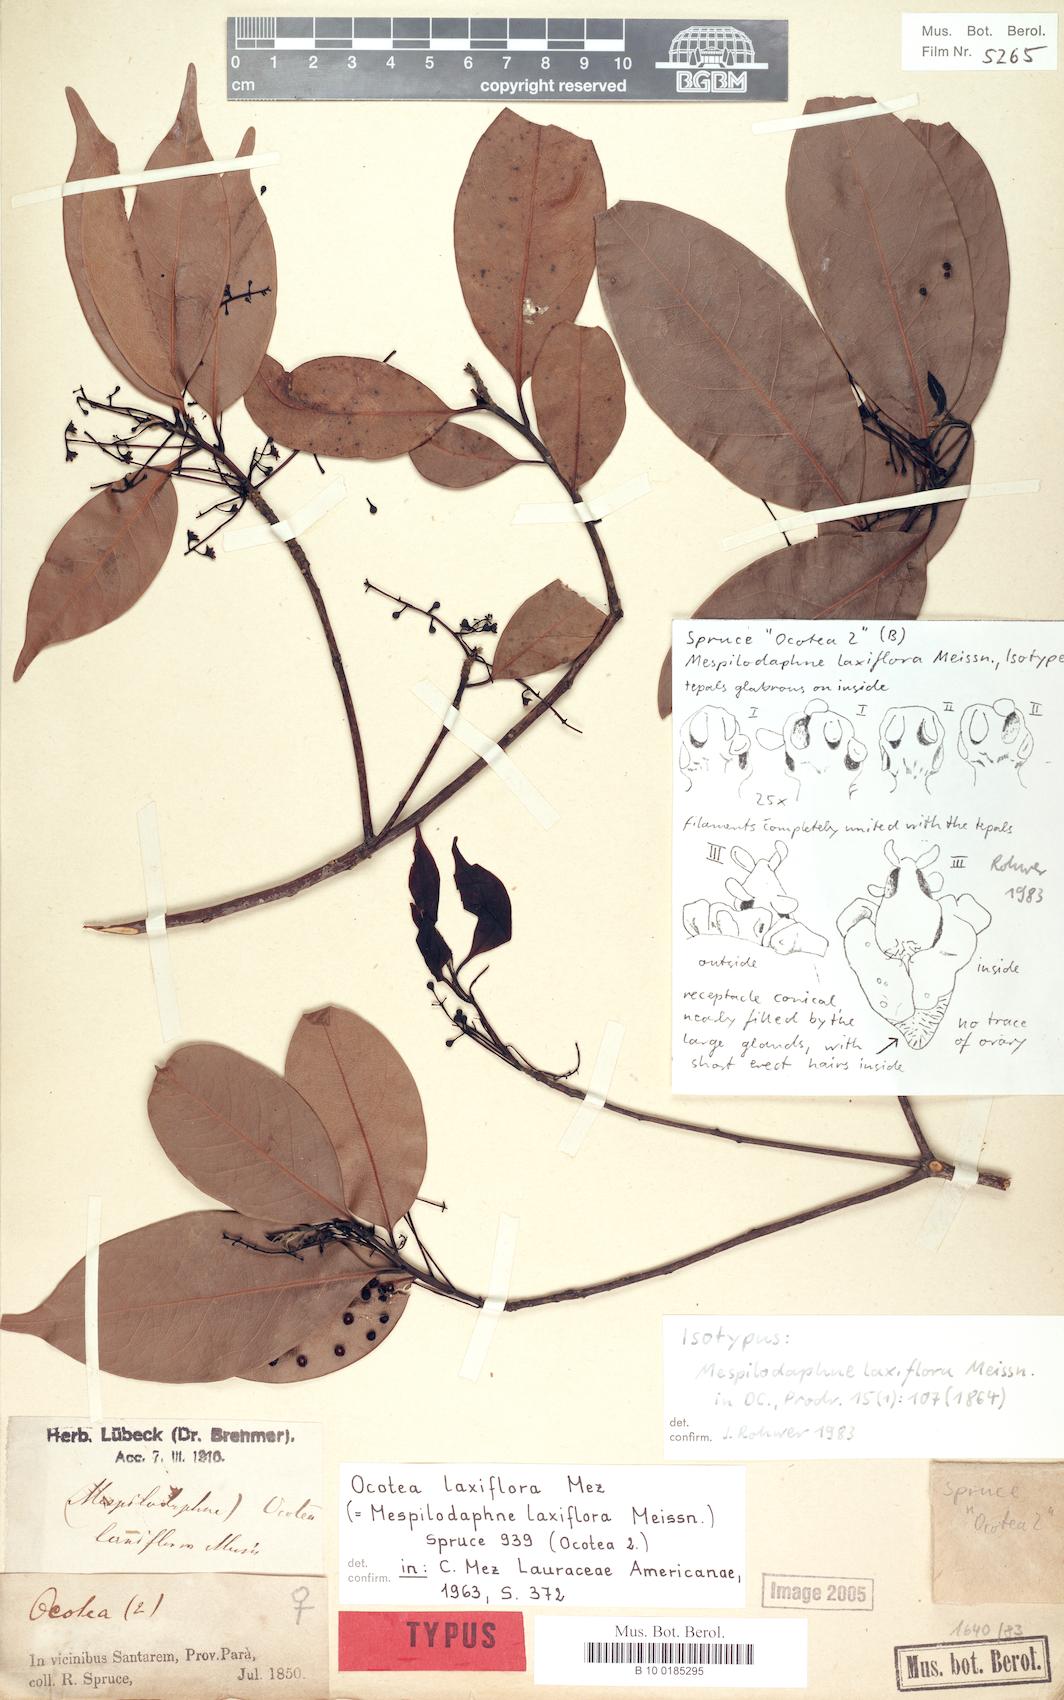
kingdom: Plantae
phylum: Tracheophyta
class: Magnoliopsida
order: Laurales
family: Lauraceae
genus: Ocotea
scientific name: Ocotea pauciflora
